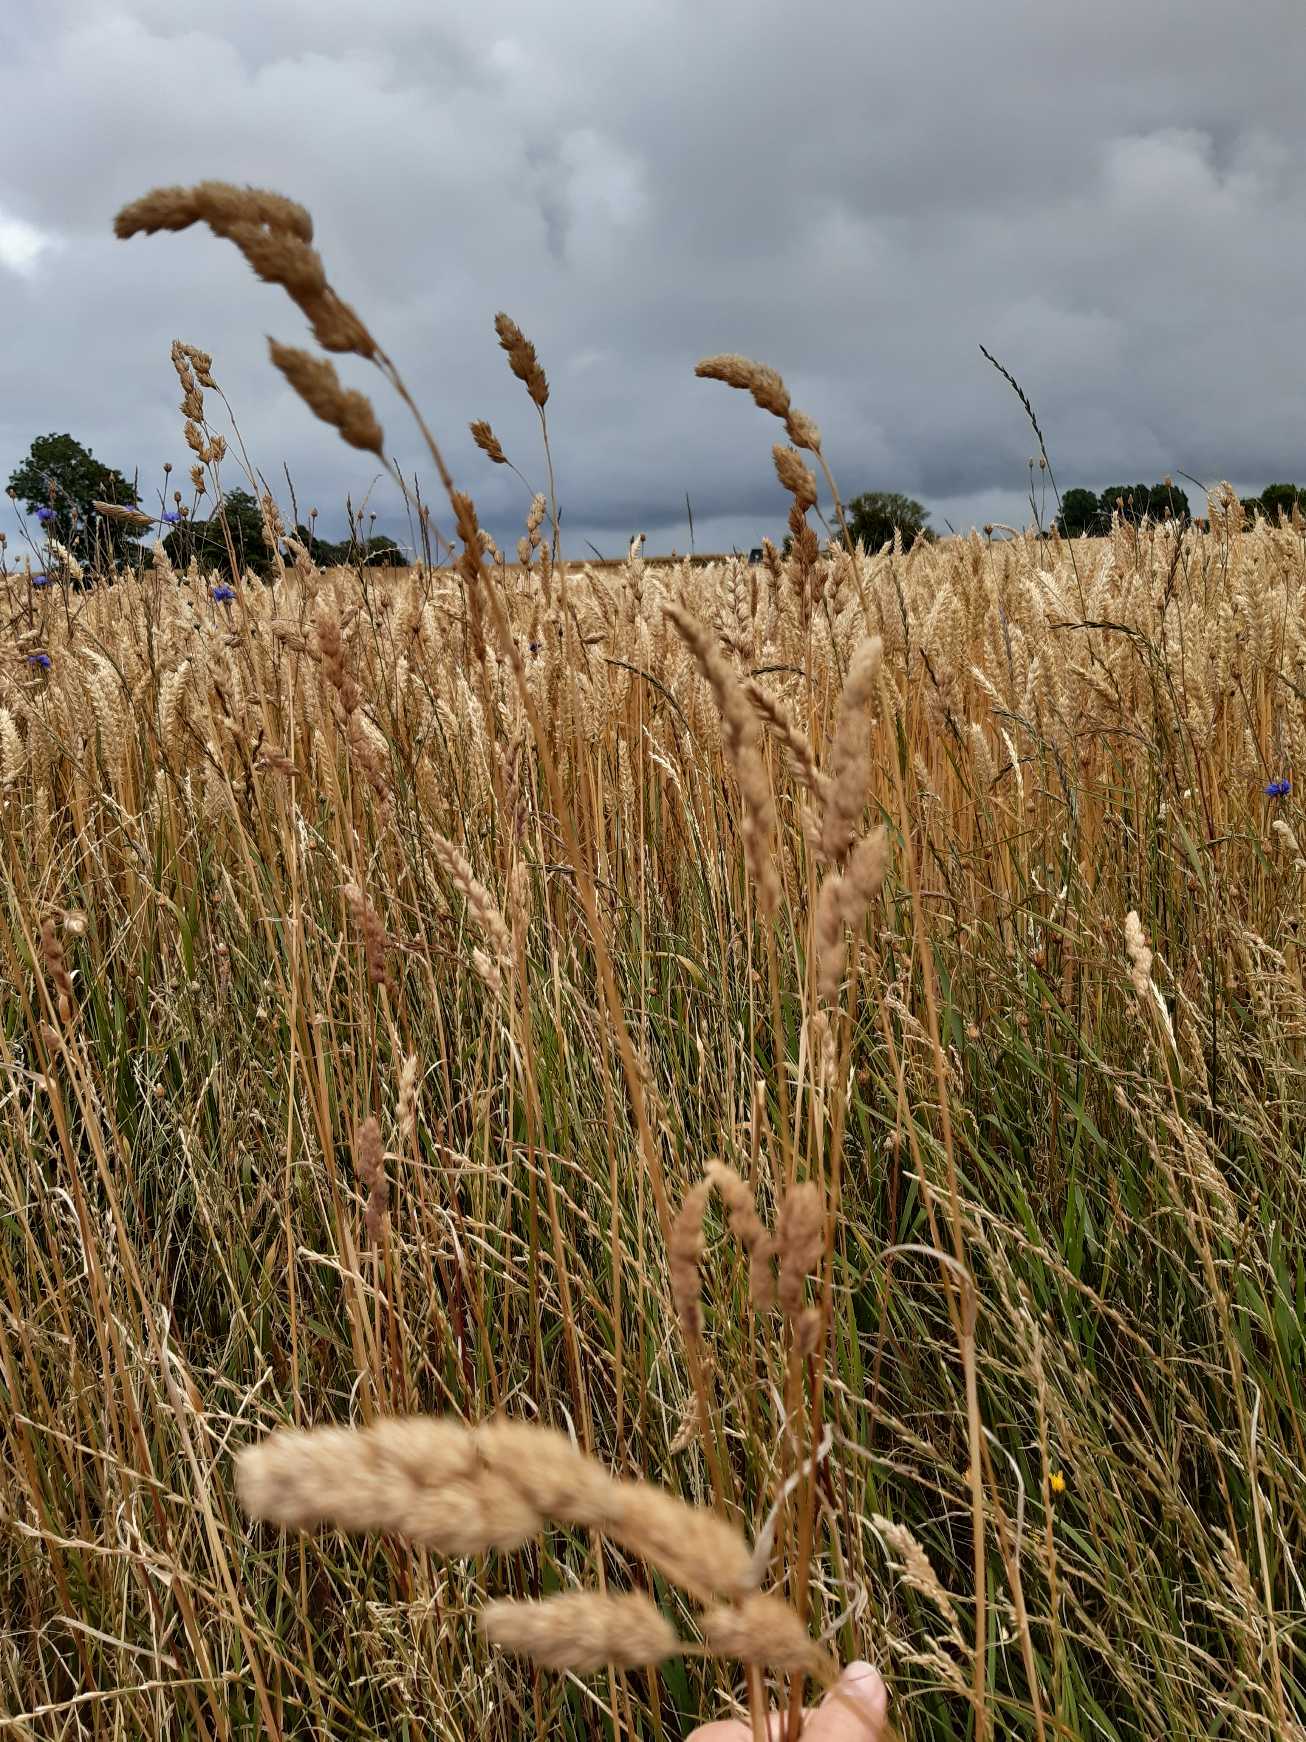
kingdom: Plantae
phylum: Tracheophyta
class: Liliopsida
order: Poales
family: Poaceae
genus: Dactylis
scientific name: Dactylis glomerata
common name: Almindelig hundegræs
